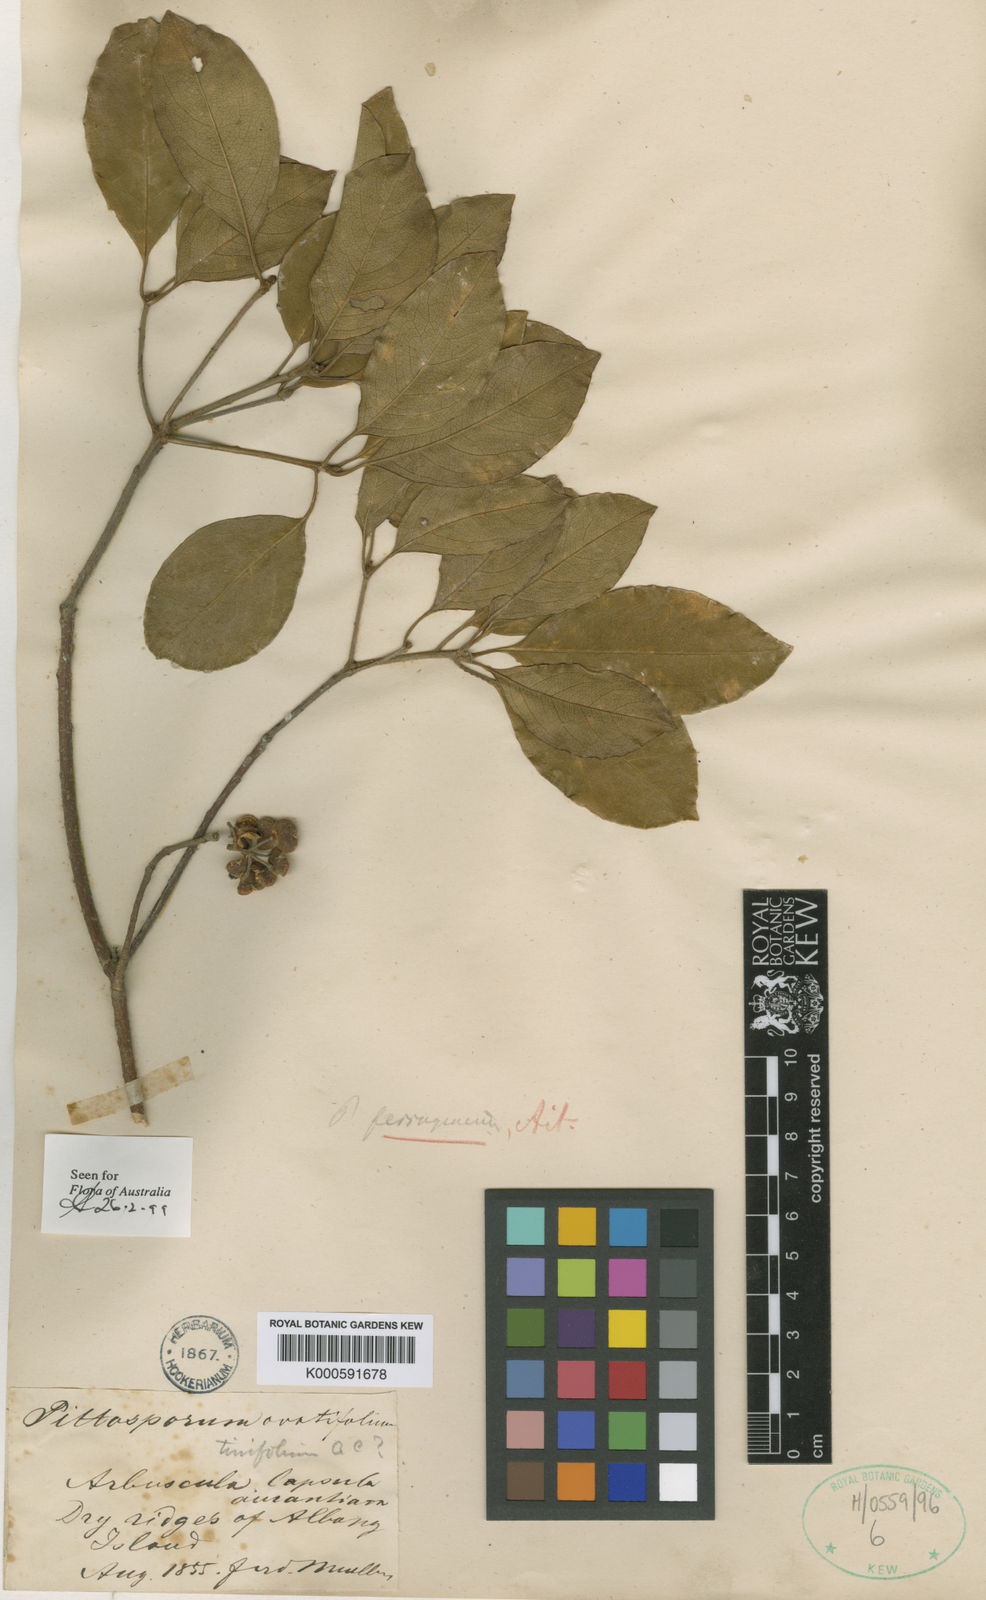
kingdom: Plantae
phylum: Tracheophyta
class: Magnoliopsida
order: Apiales
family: Pittosporaceae
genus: Pittosporum
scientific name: Pittosporum ferrugineum
